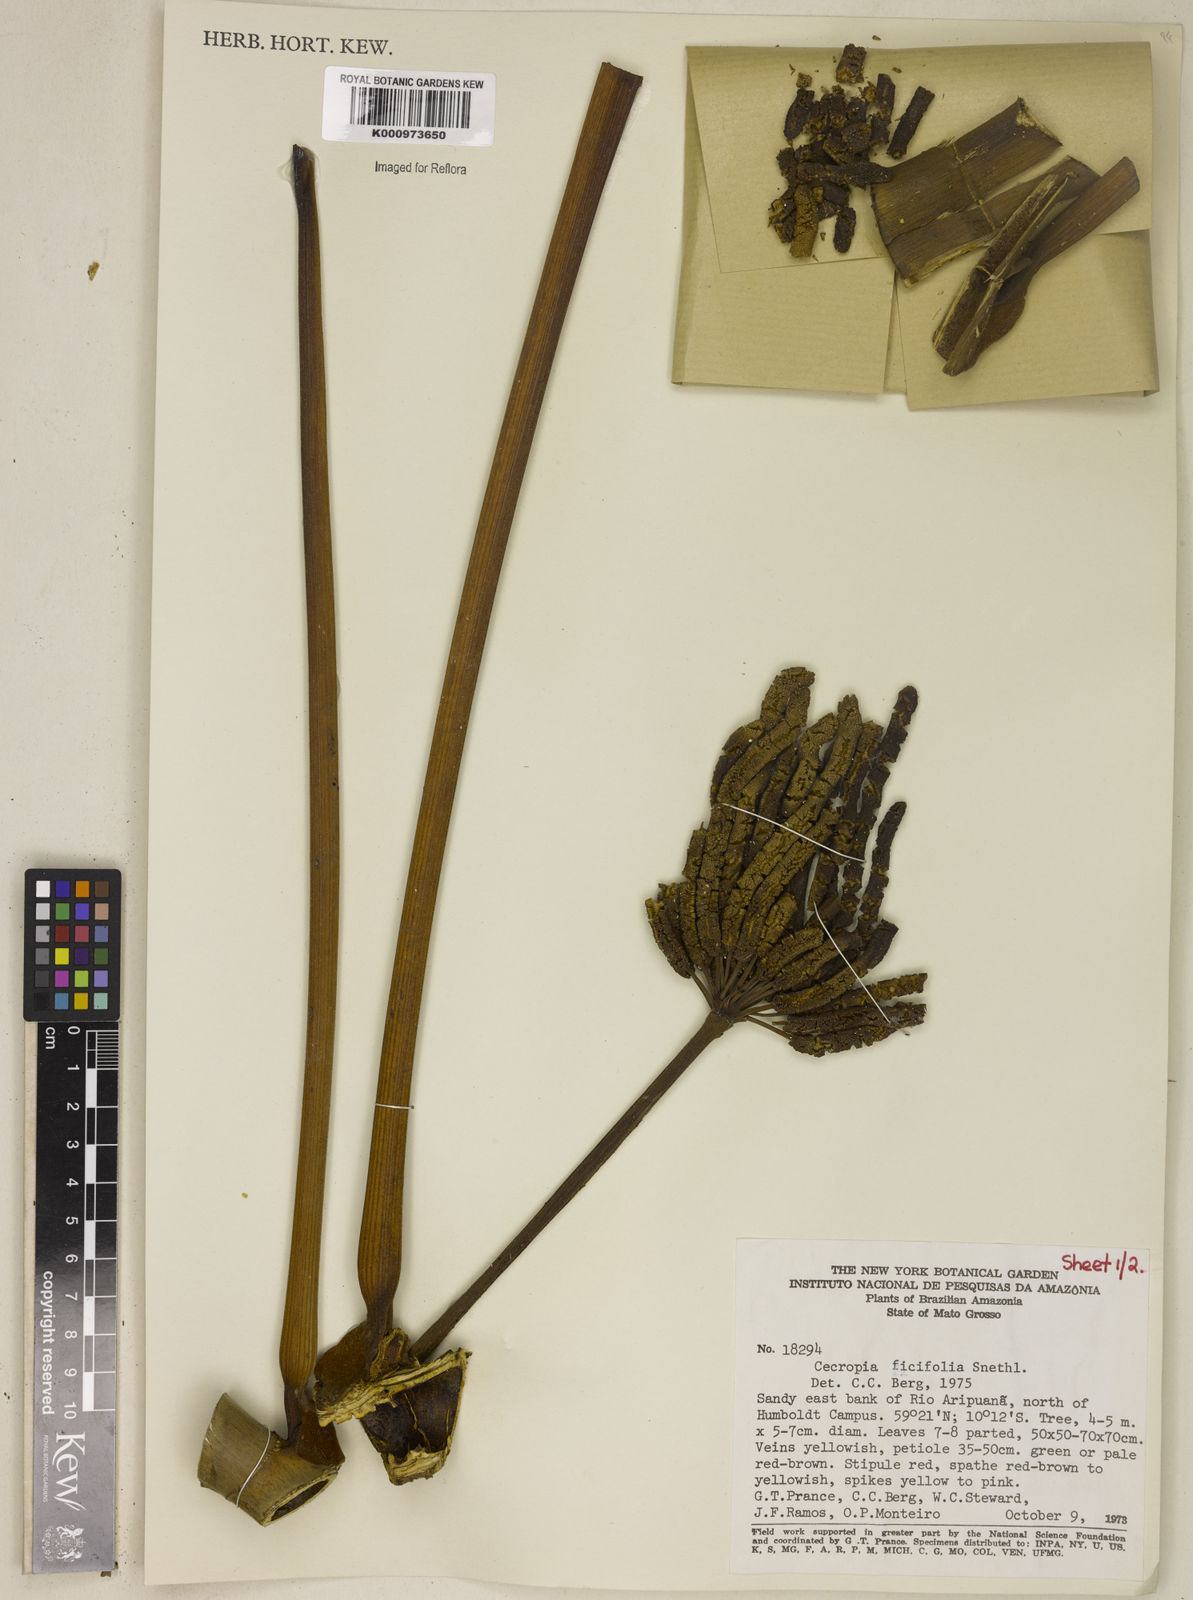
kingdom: Plantae
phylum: Tracheophyta
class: Magnoliopsida
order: Rosales
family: Urticaceae
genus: Cecropia
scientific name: Cecropia ficifolia
